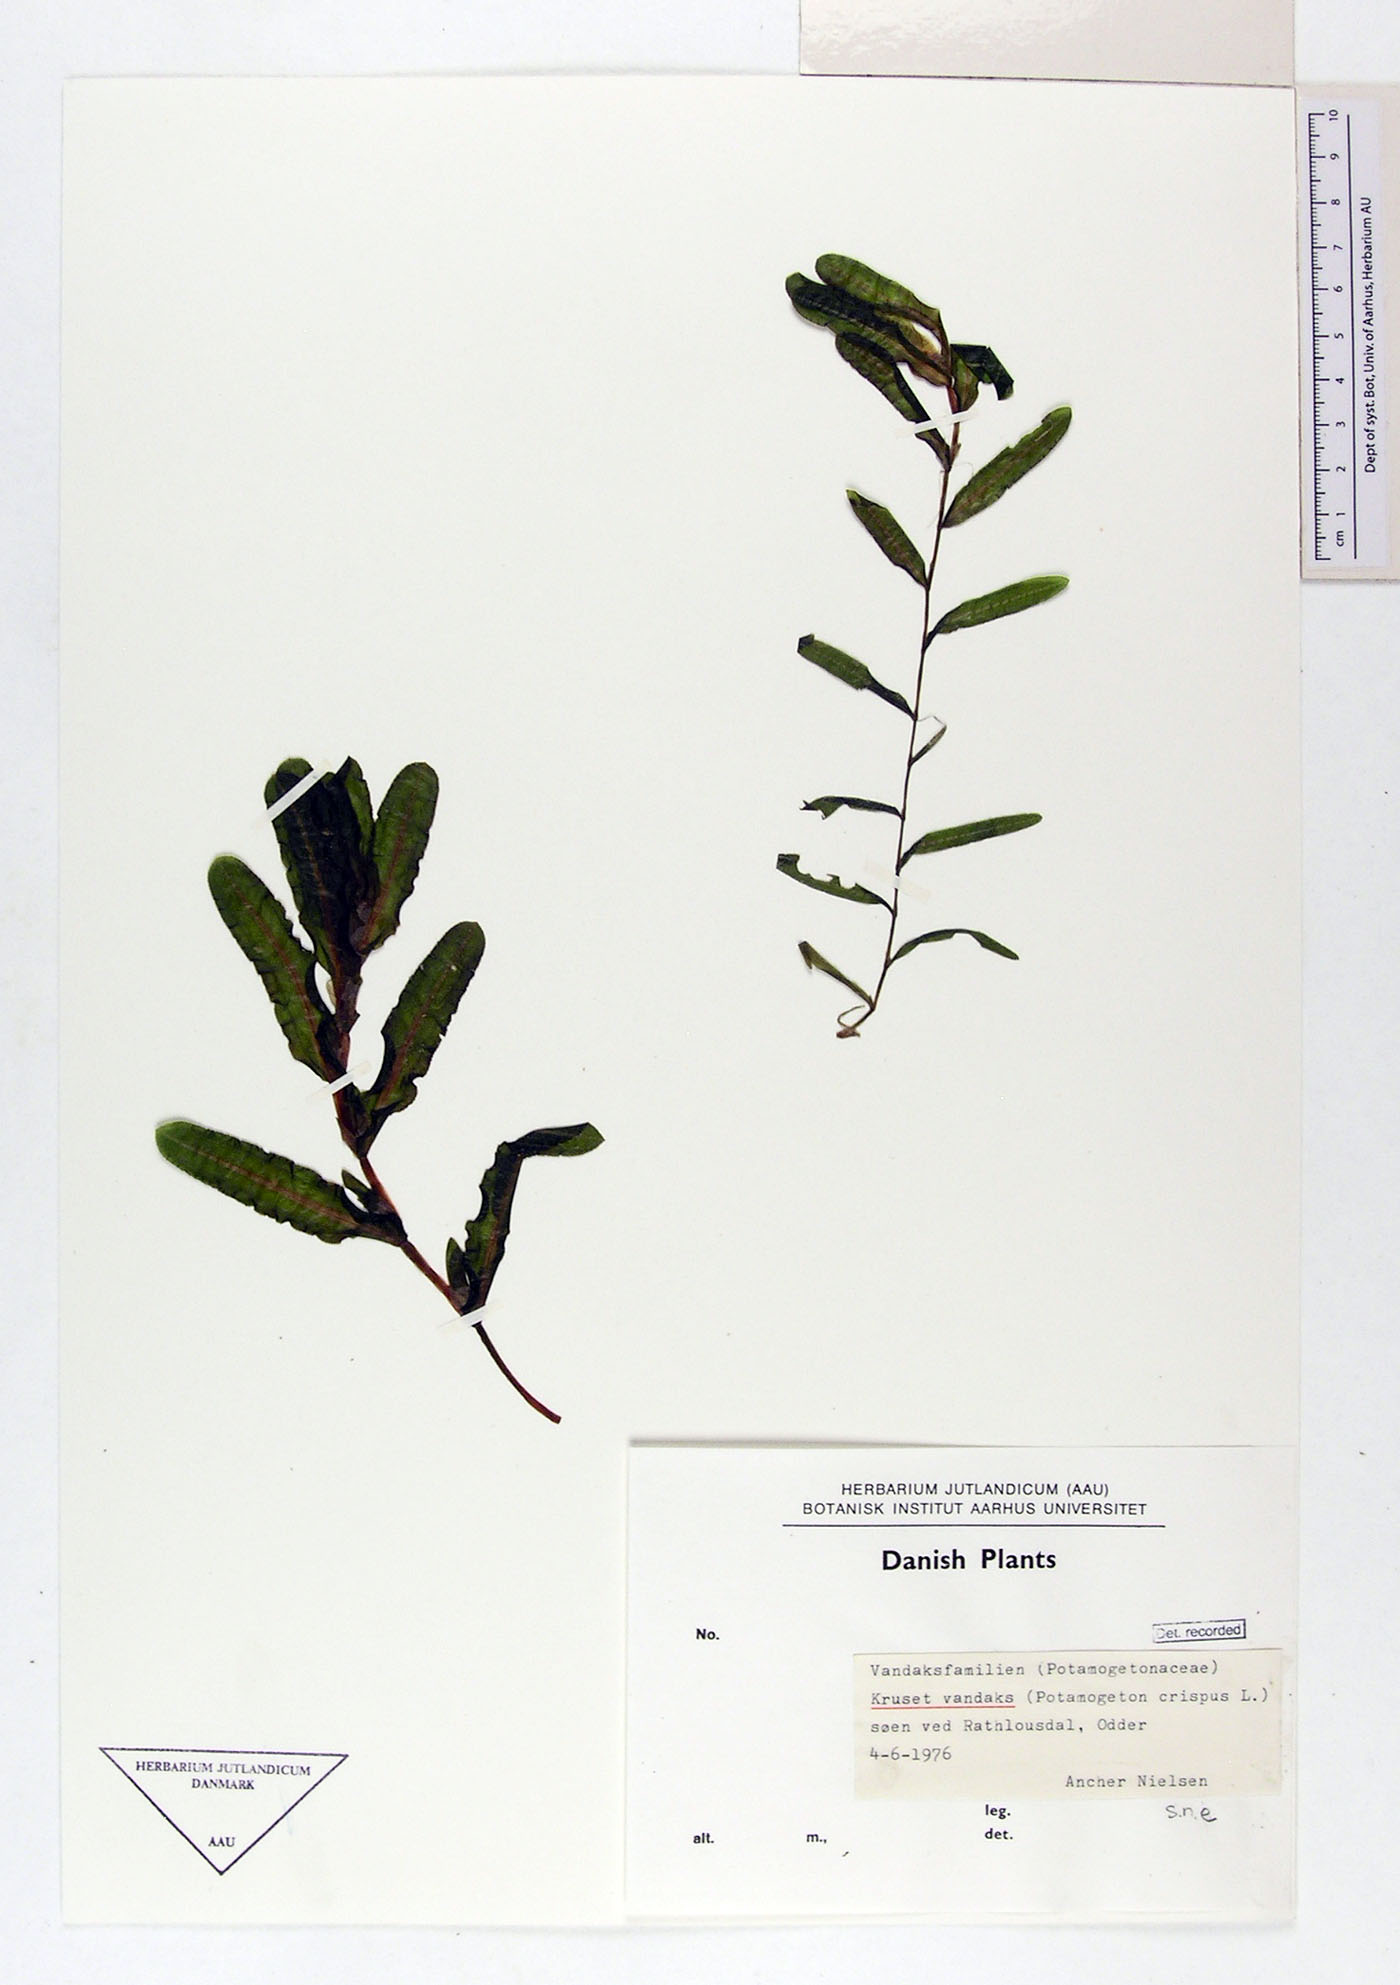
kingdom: Plantae
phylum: Tracheophyta
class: Liliopsida
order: Alismatales
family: Potamogetonaceae
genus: Potamogeton
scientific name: Potamogeton crispus
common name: Curled pondweed
